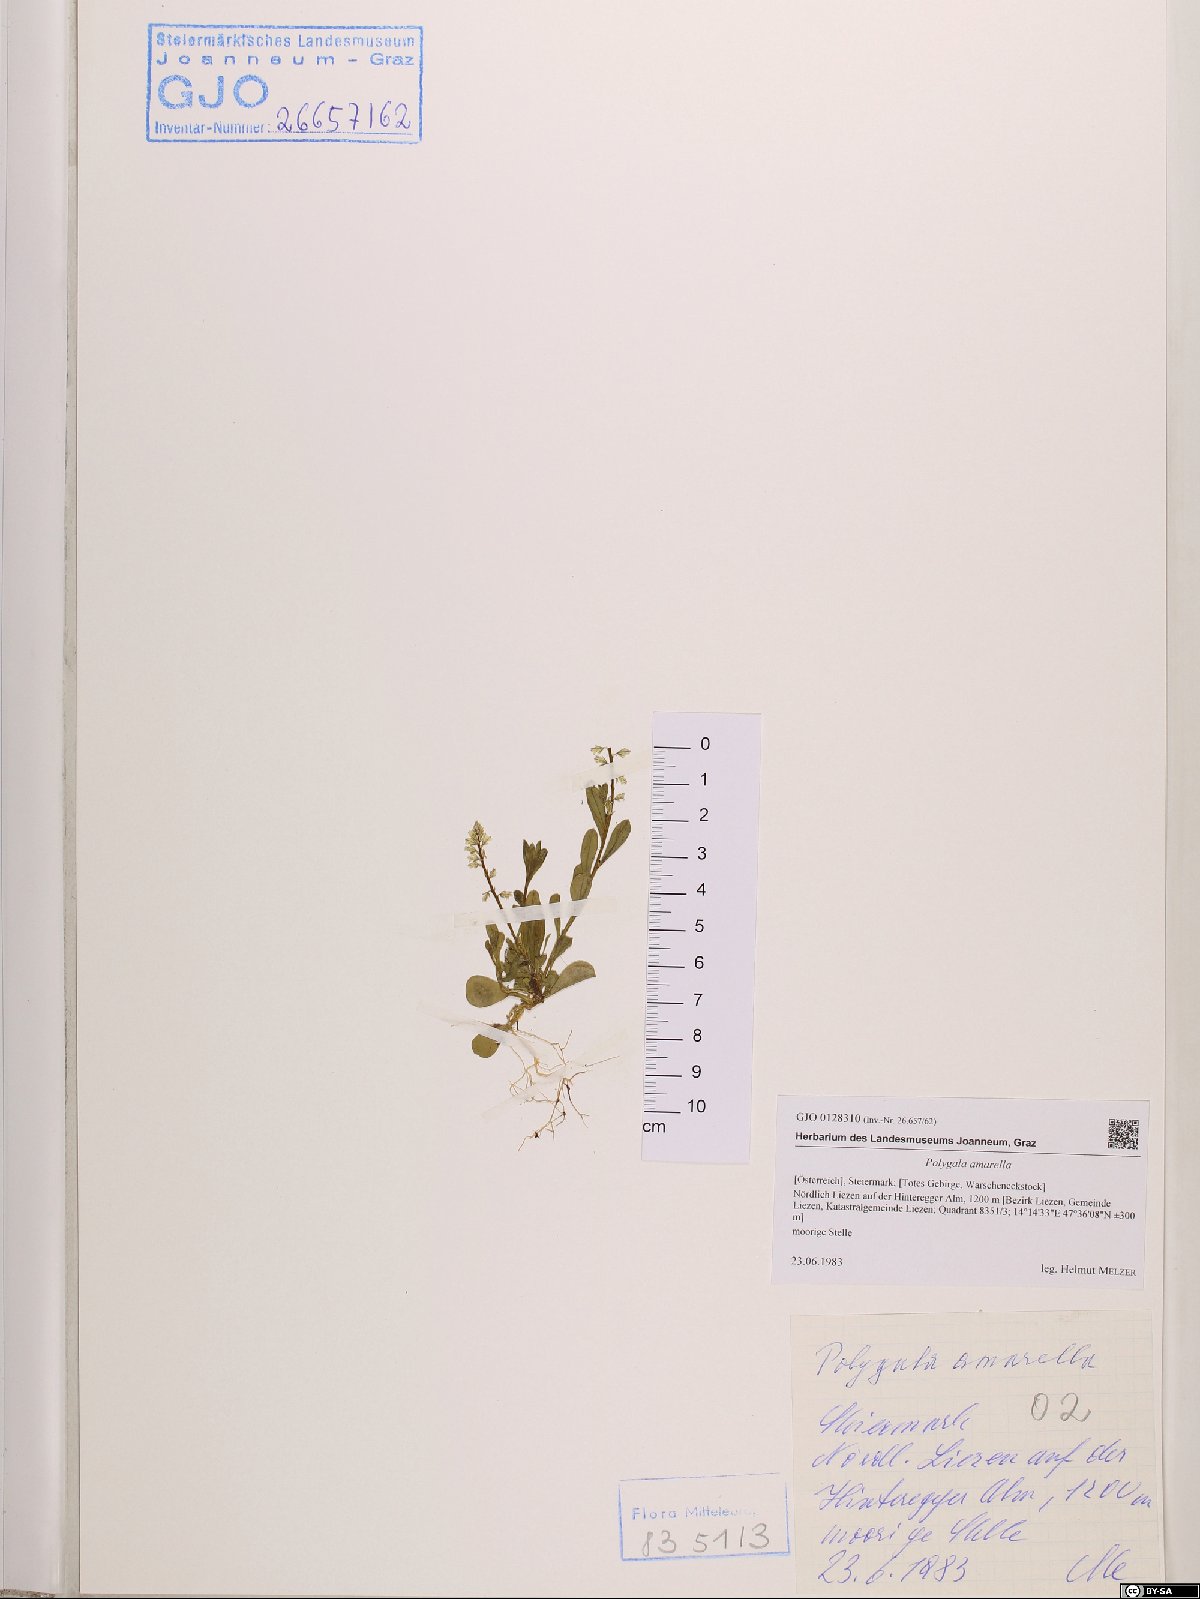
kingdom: Plantae
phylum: Tracheophyta
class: Magnoliopsida
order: Fabales
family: Polygalaceae
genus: Polygala
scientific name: Polygala amarella
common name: Dwarf milkwort
